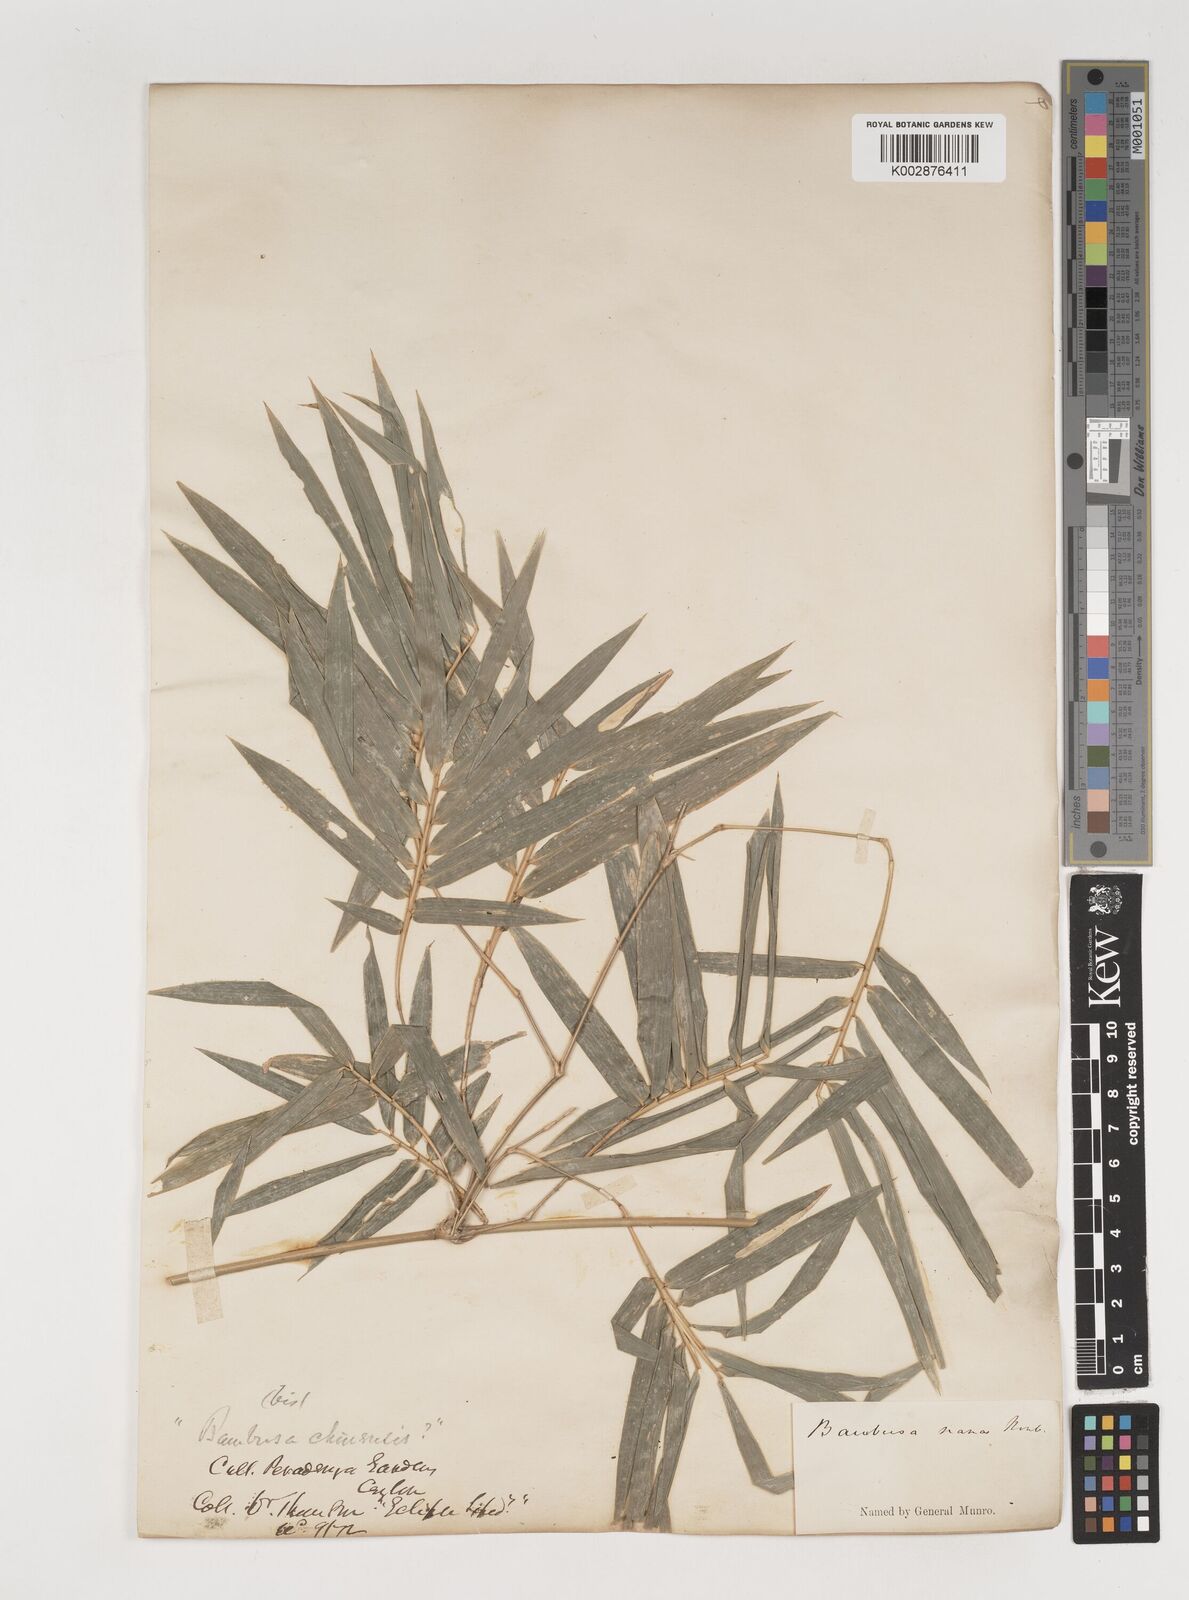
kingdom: Plantae
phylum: Tracheophyta
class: Liliopsida
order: Poales
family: Poaceae
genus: Bambusa
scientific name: Bambusa multiplex
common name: Hedge bamboo
